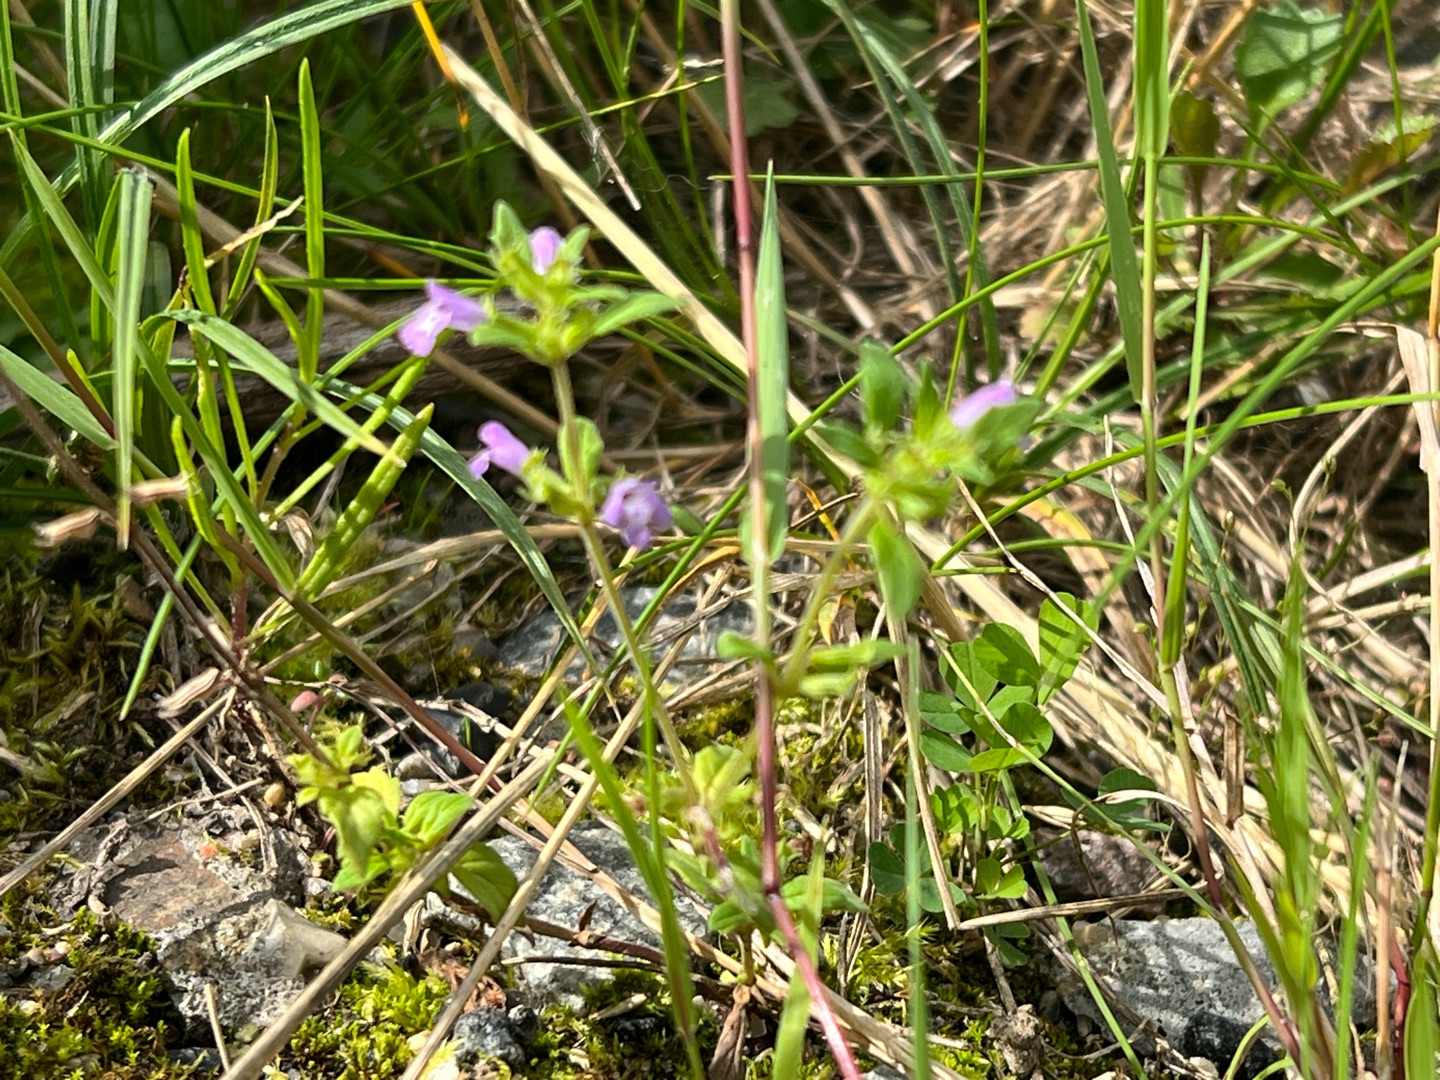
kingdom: Plantae
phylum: Tracheophyta
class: Magnoliopsida
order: Lamiales
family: Lamiaceae
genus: Clinopodium
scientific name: Clinopodium acinos
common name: Voldtimian
